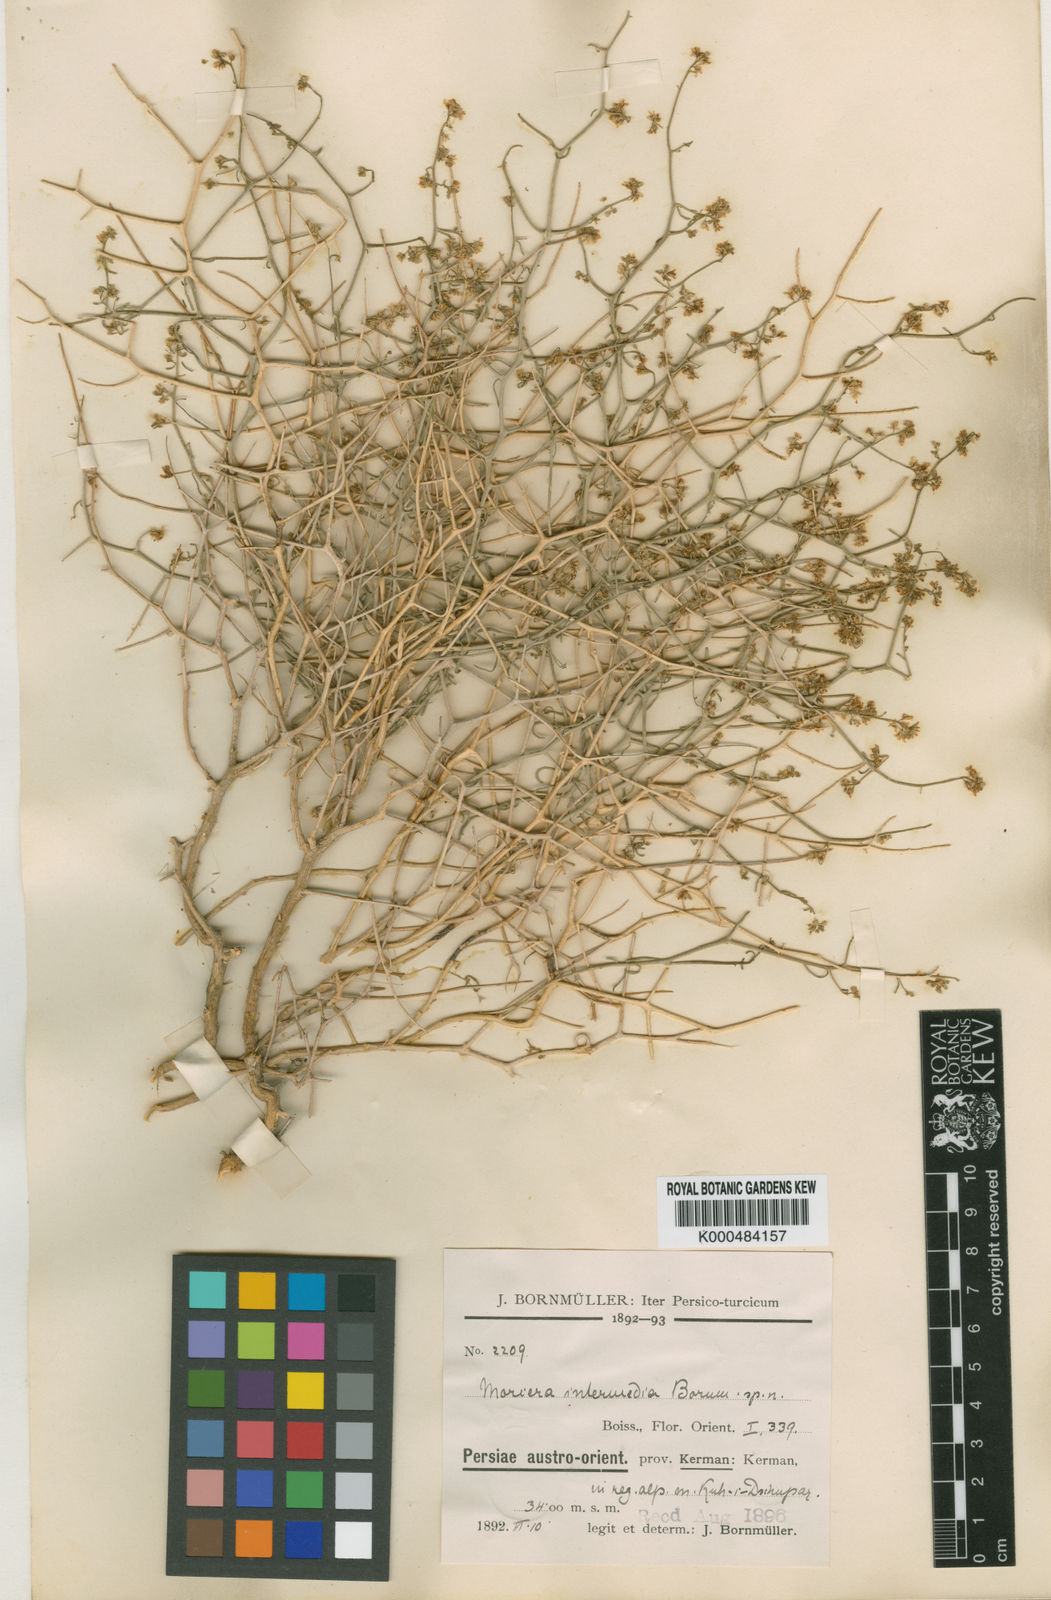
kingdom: Plantae
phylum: Tracheophyta
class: Magnoliopsida
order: Brassicales
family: Brassicaceae
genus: Moriera
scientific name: Moriera
